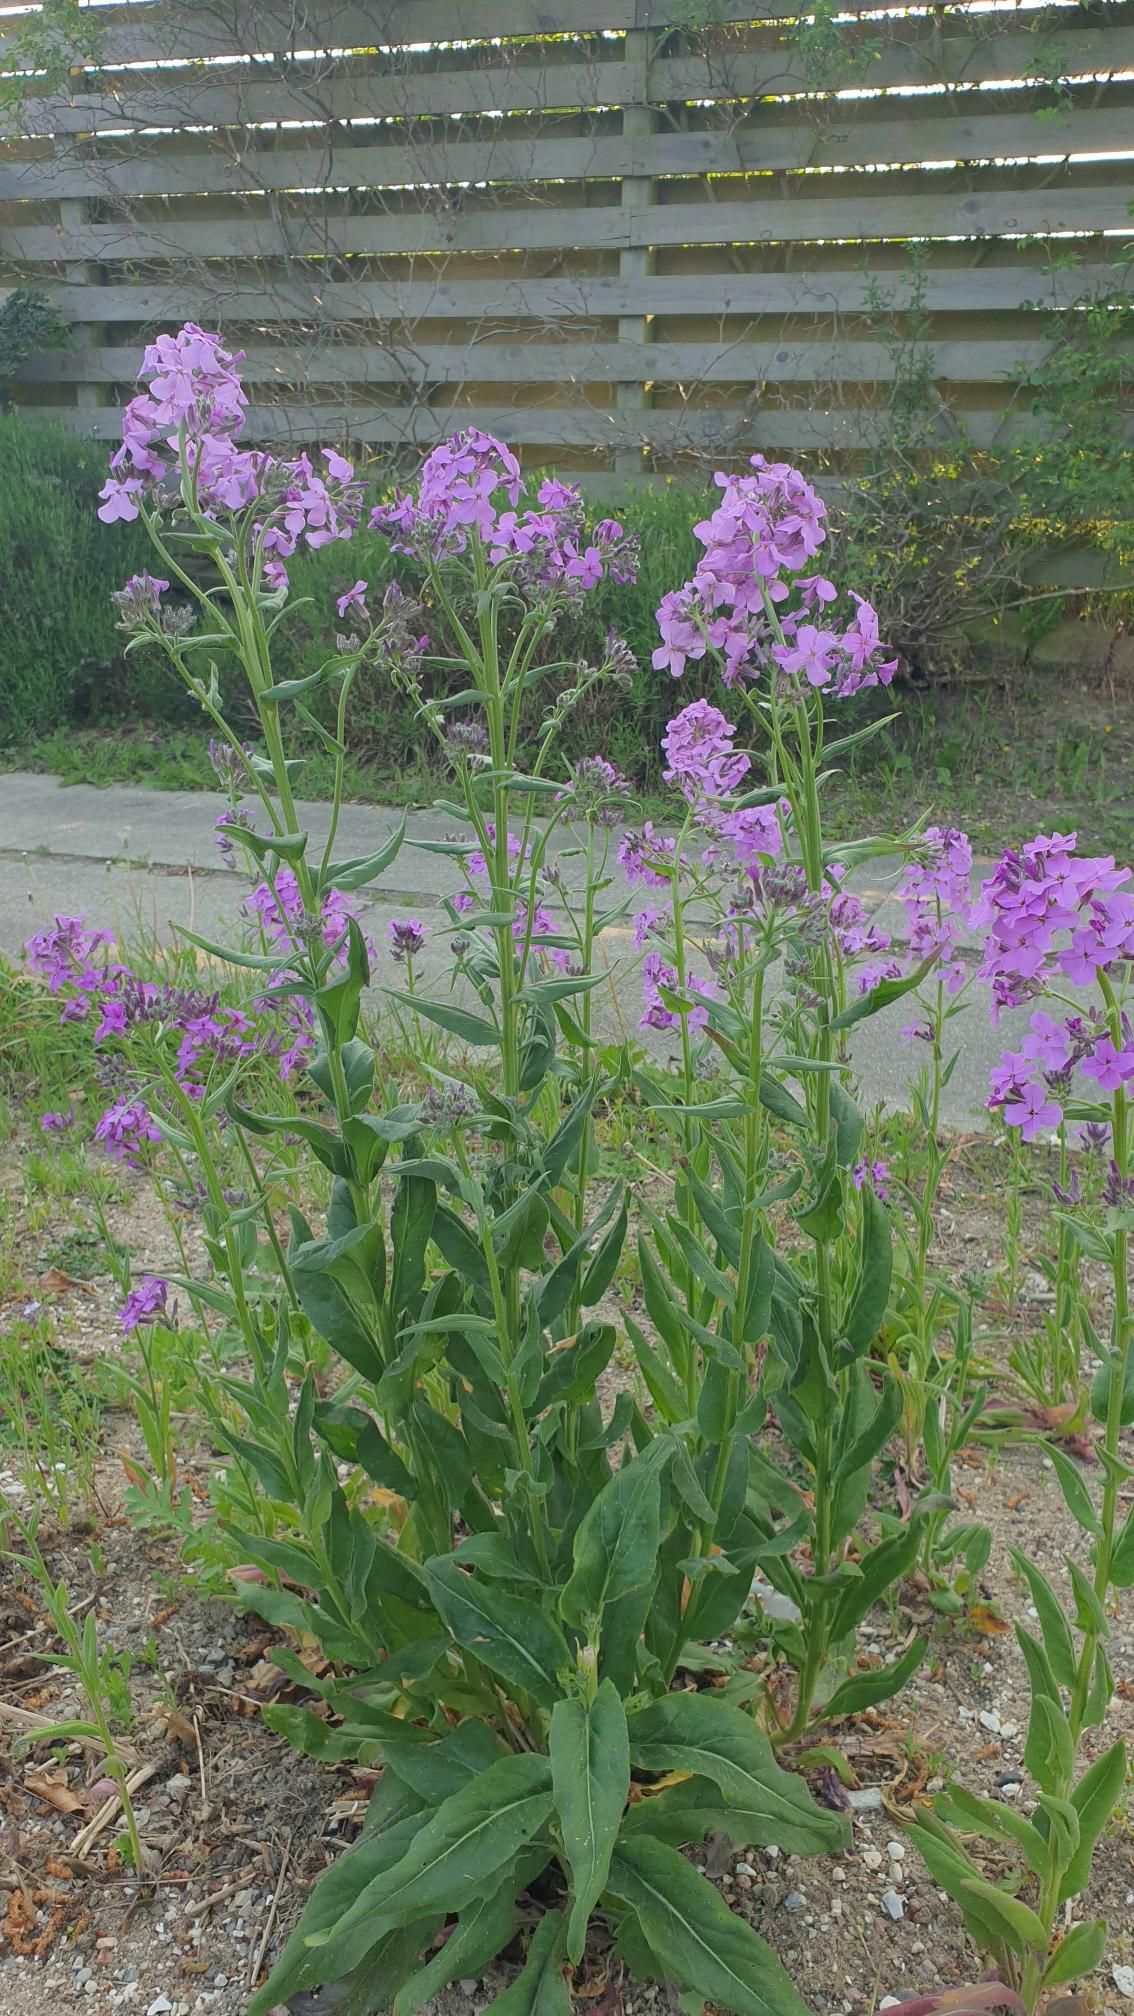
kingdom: Plantae
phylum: Tracheophyta
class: Magnoliopsida
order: Brassicales
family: Brassicaceae
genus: Hesperis
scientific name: Hesperis matronalis
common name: Aftenstjerne
